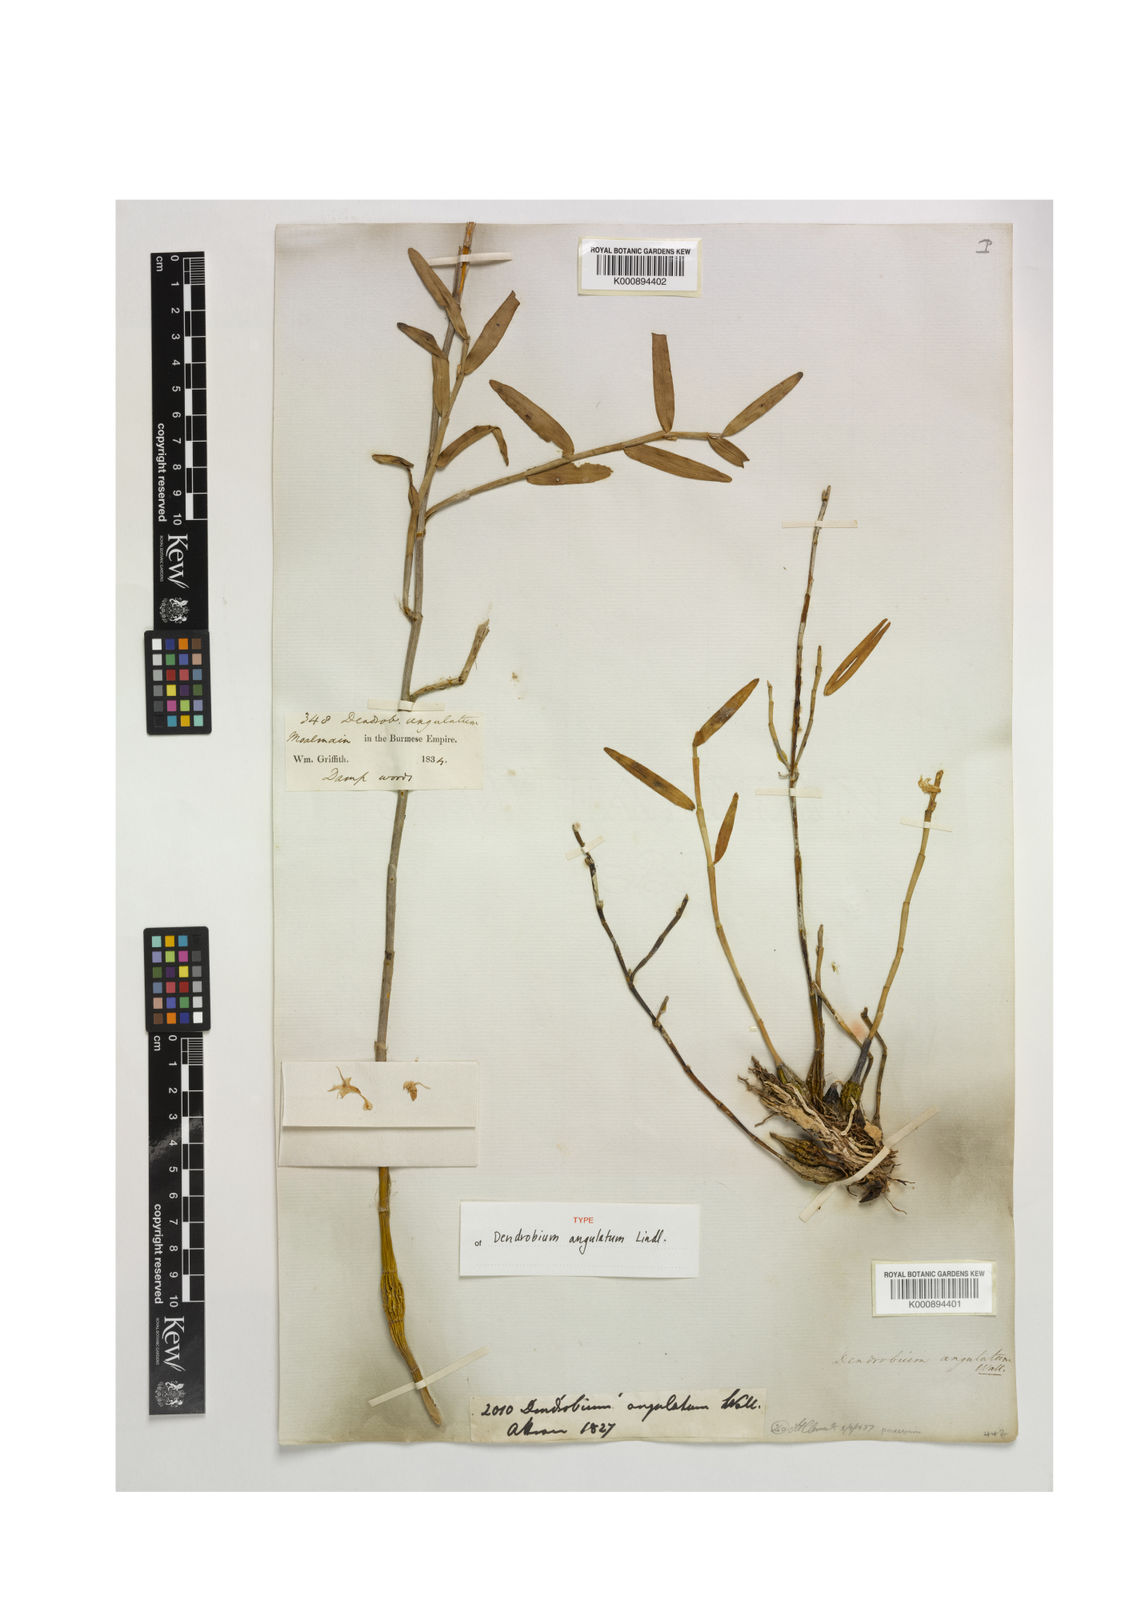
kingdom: Plantae
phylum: Tracheophyta
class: Liliopsida
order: Asparagales
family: Orchidaceae
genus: Dendrobium
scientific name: Dendrobium angulatum
